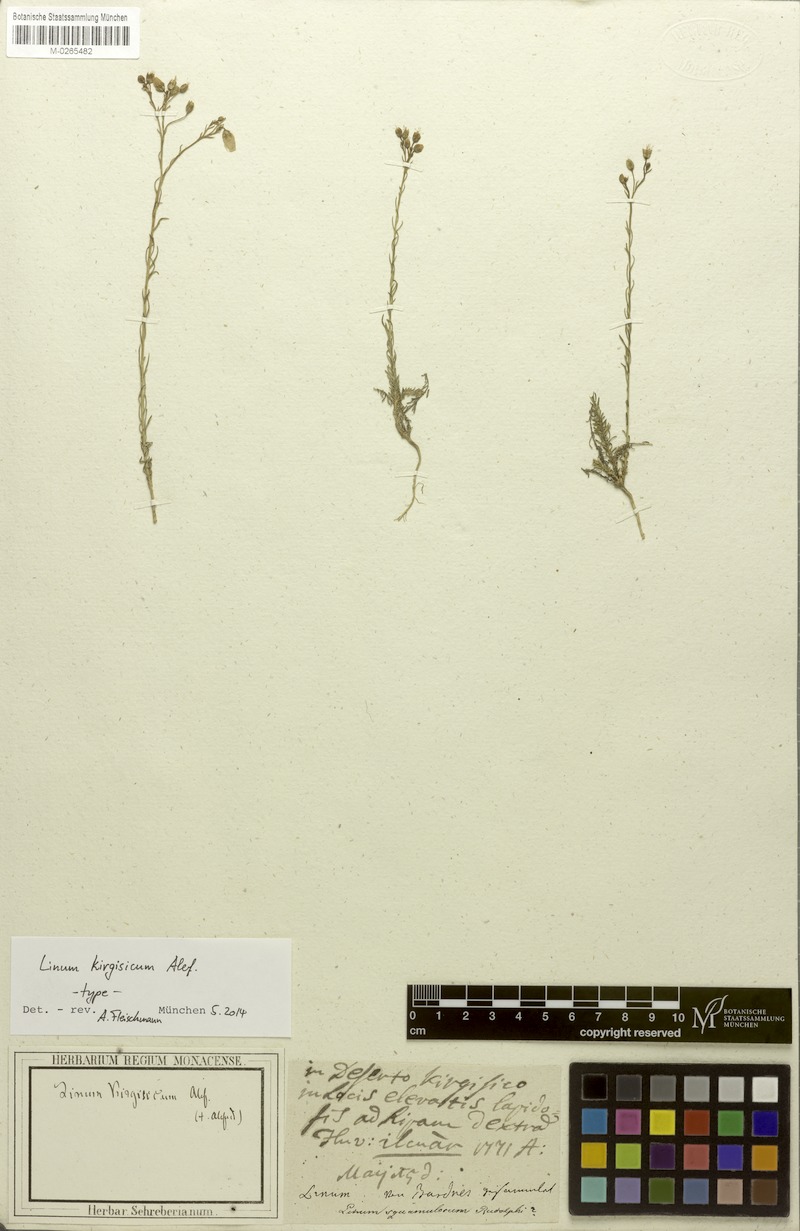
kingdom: Plantae
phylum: Tracheophyta
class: Magnoliopsida
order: Malpighiales
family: Linaceae
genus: Linum
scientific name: Linum altaicum
